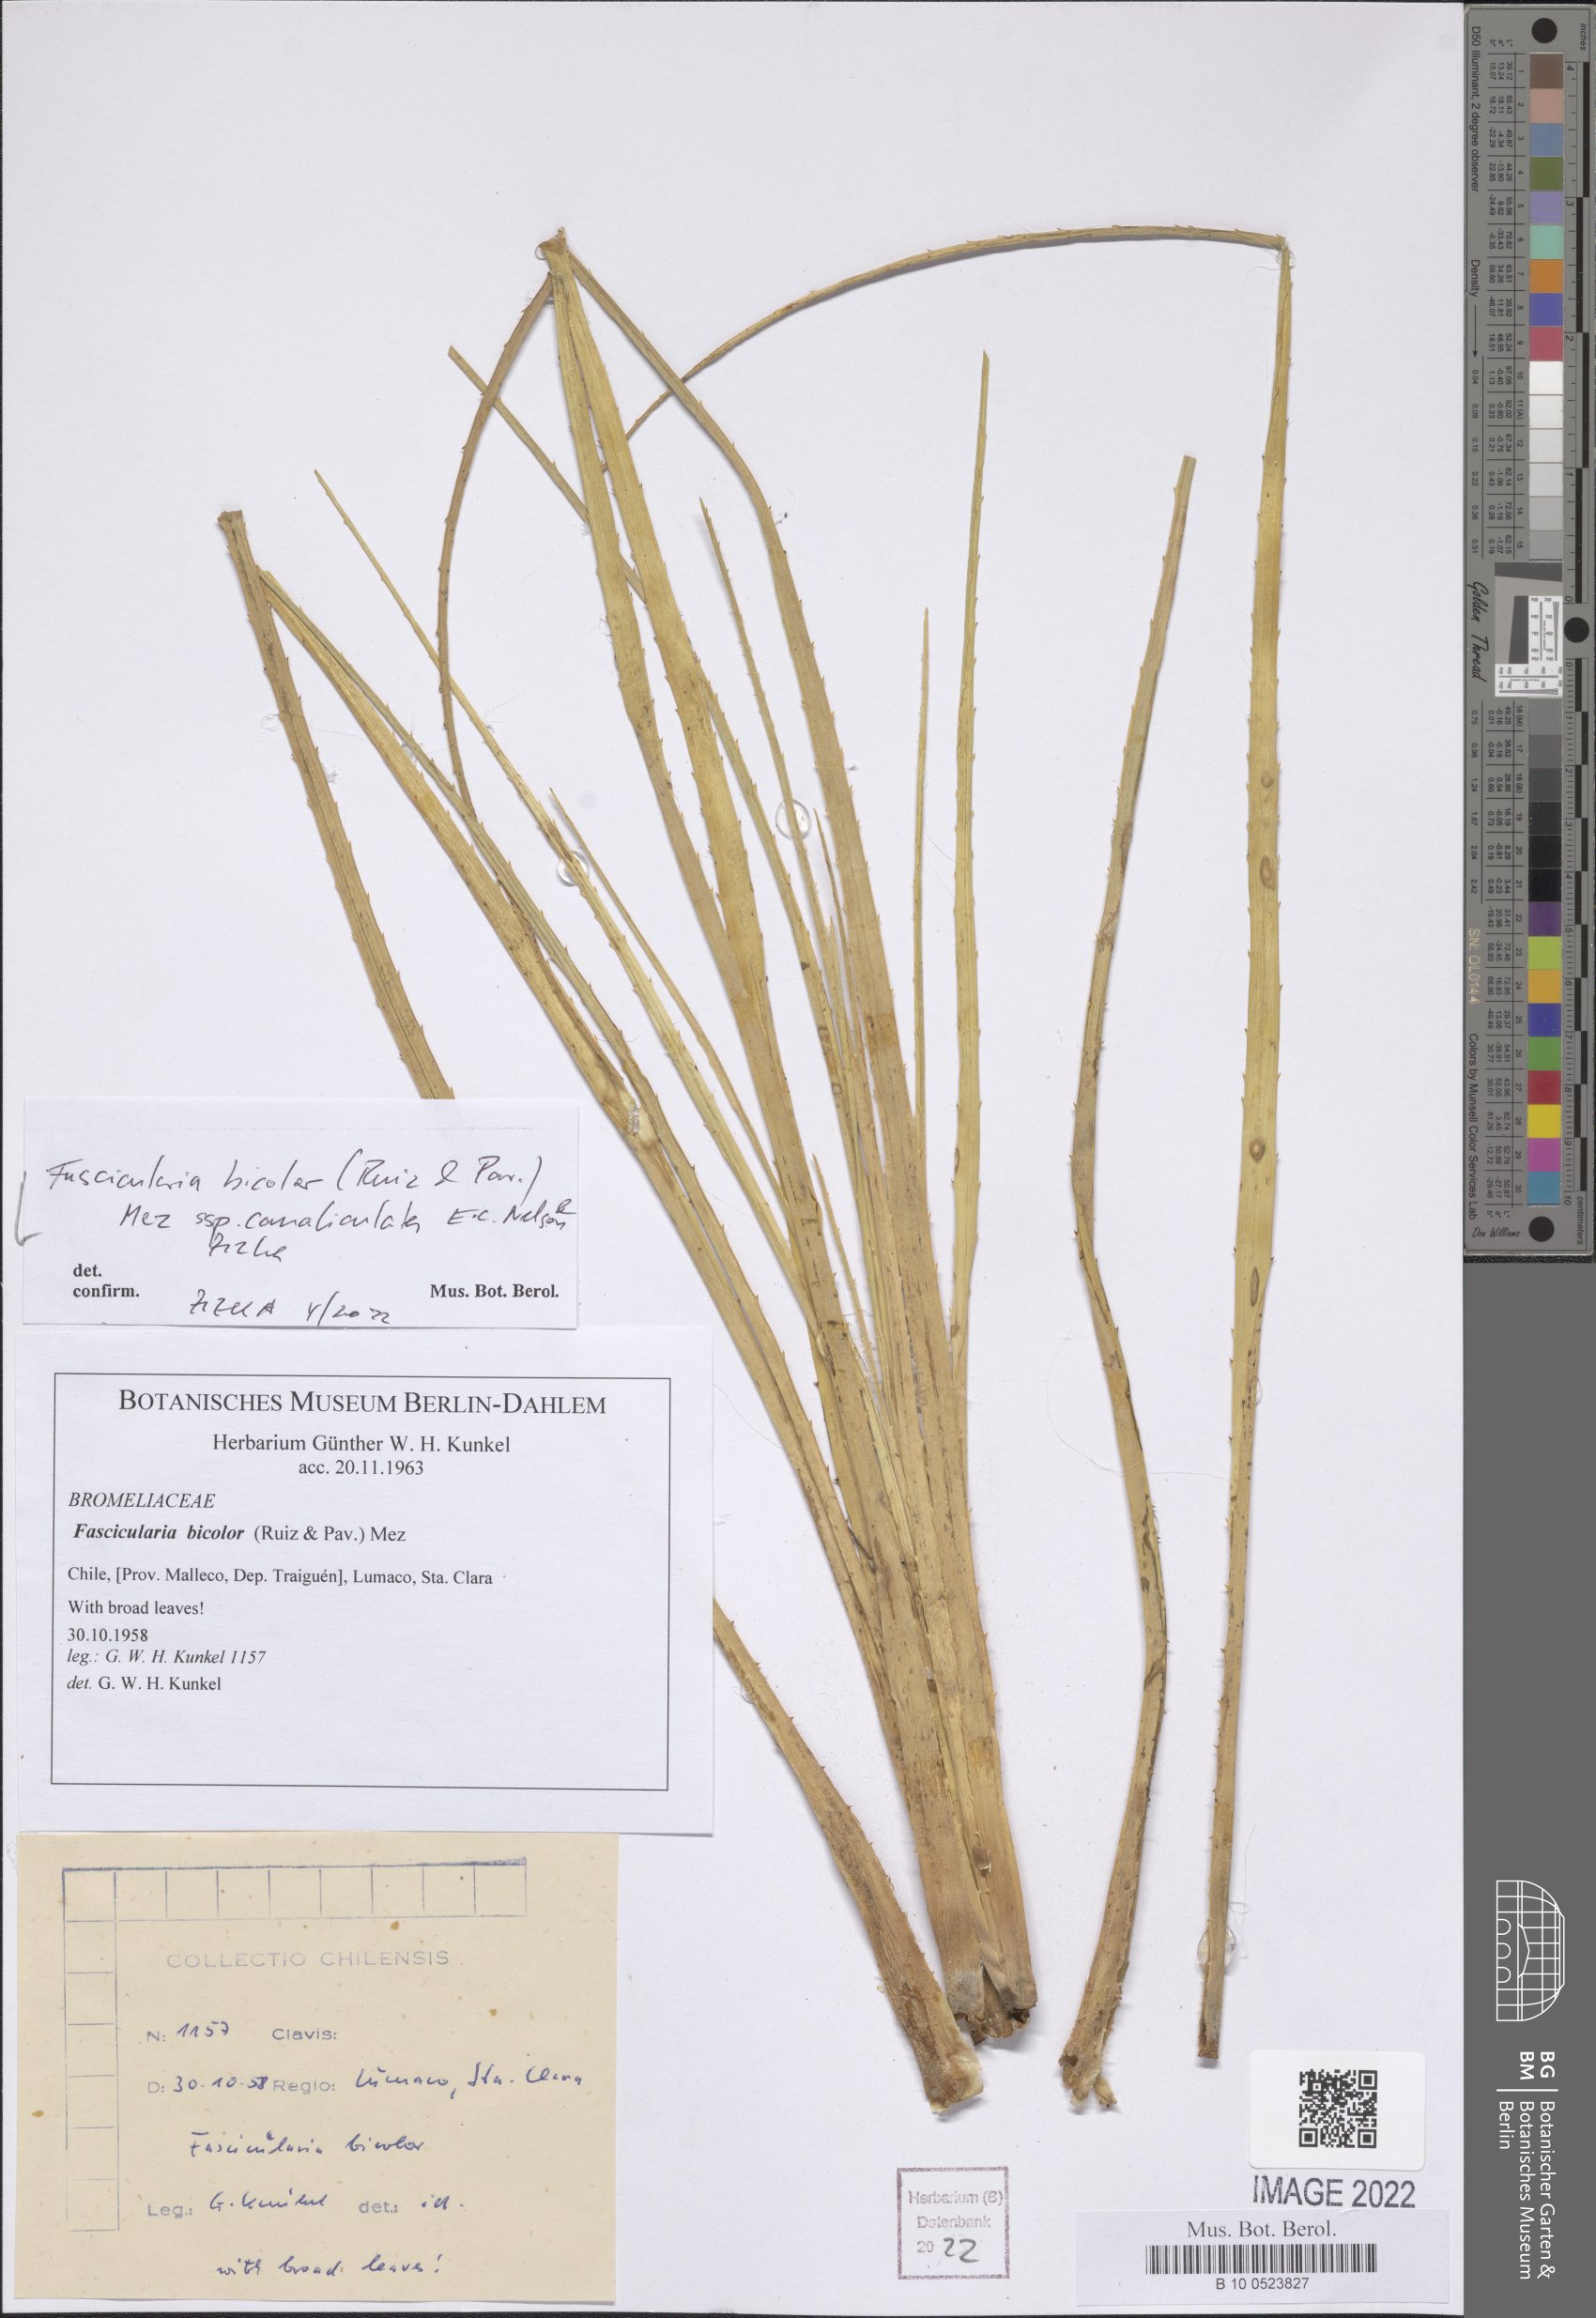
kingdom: Plantae
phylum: Tracheophyta
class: Liliopsida
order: Poales
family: Bromeliaceae
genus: Fascicularia
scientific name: Fascicularia bicolor
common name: Rhodostachys
